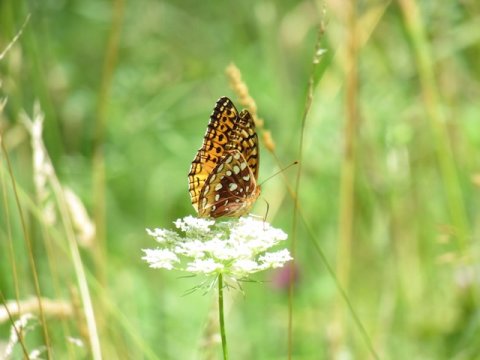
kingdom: Animalia
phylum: Arthropoda
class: Insecta
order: Lepidoptera
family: Nymphalidae
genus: Speyeria
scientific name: Speyeria cybele
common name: Great Spangled Fritillary
